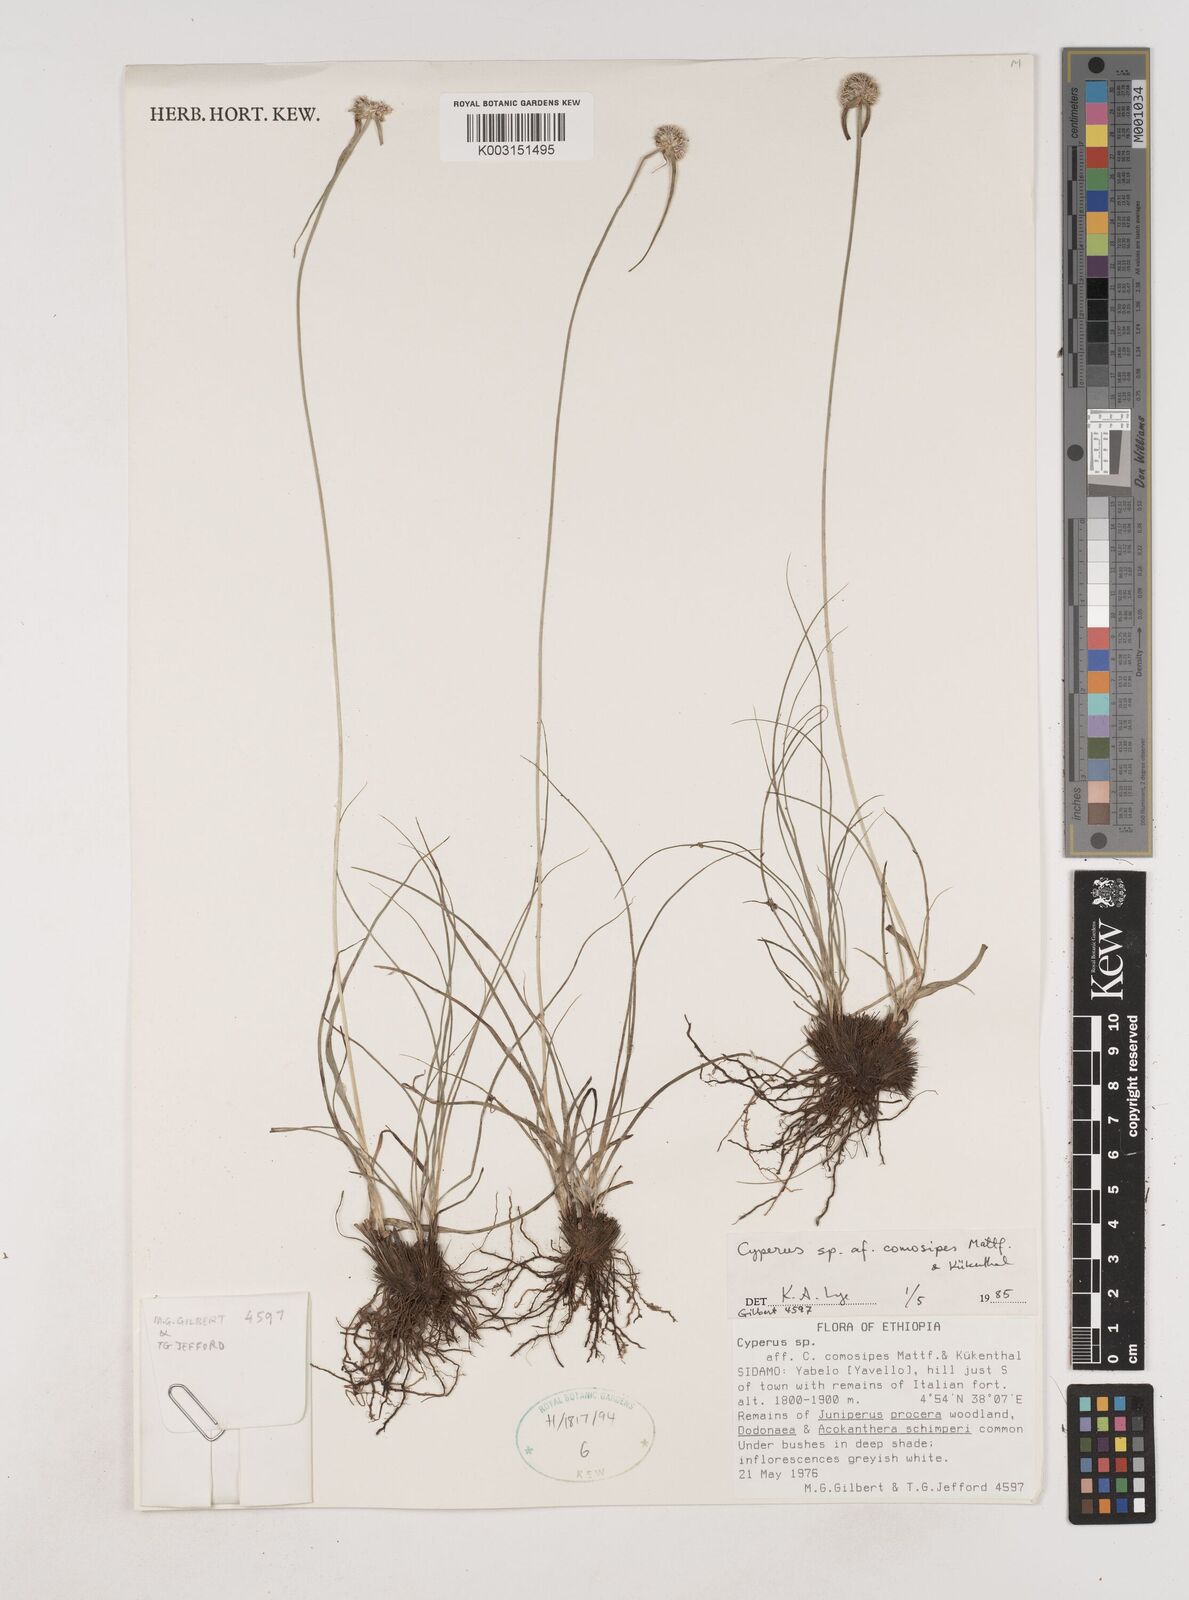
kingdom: Plantae
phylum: Tracheophyta
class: Liliopsida
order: Poales
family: Cyperaceae
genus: Cyperus
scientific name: Cyperus comosipes
